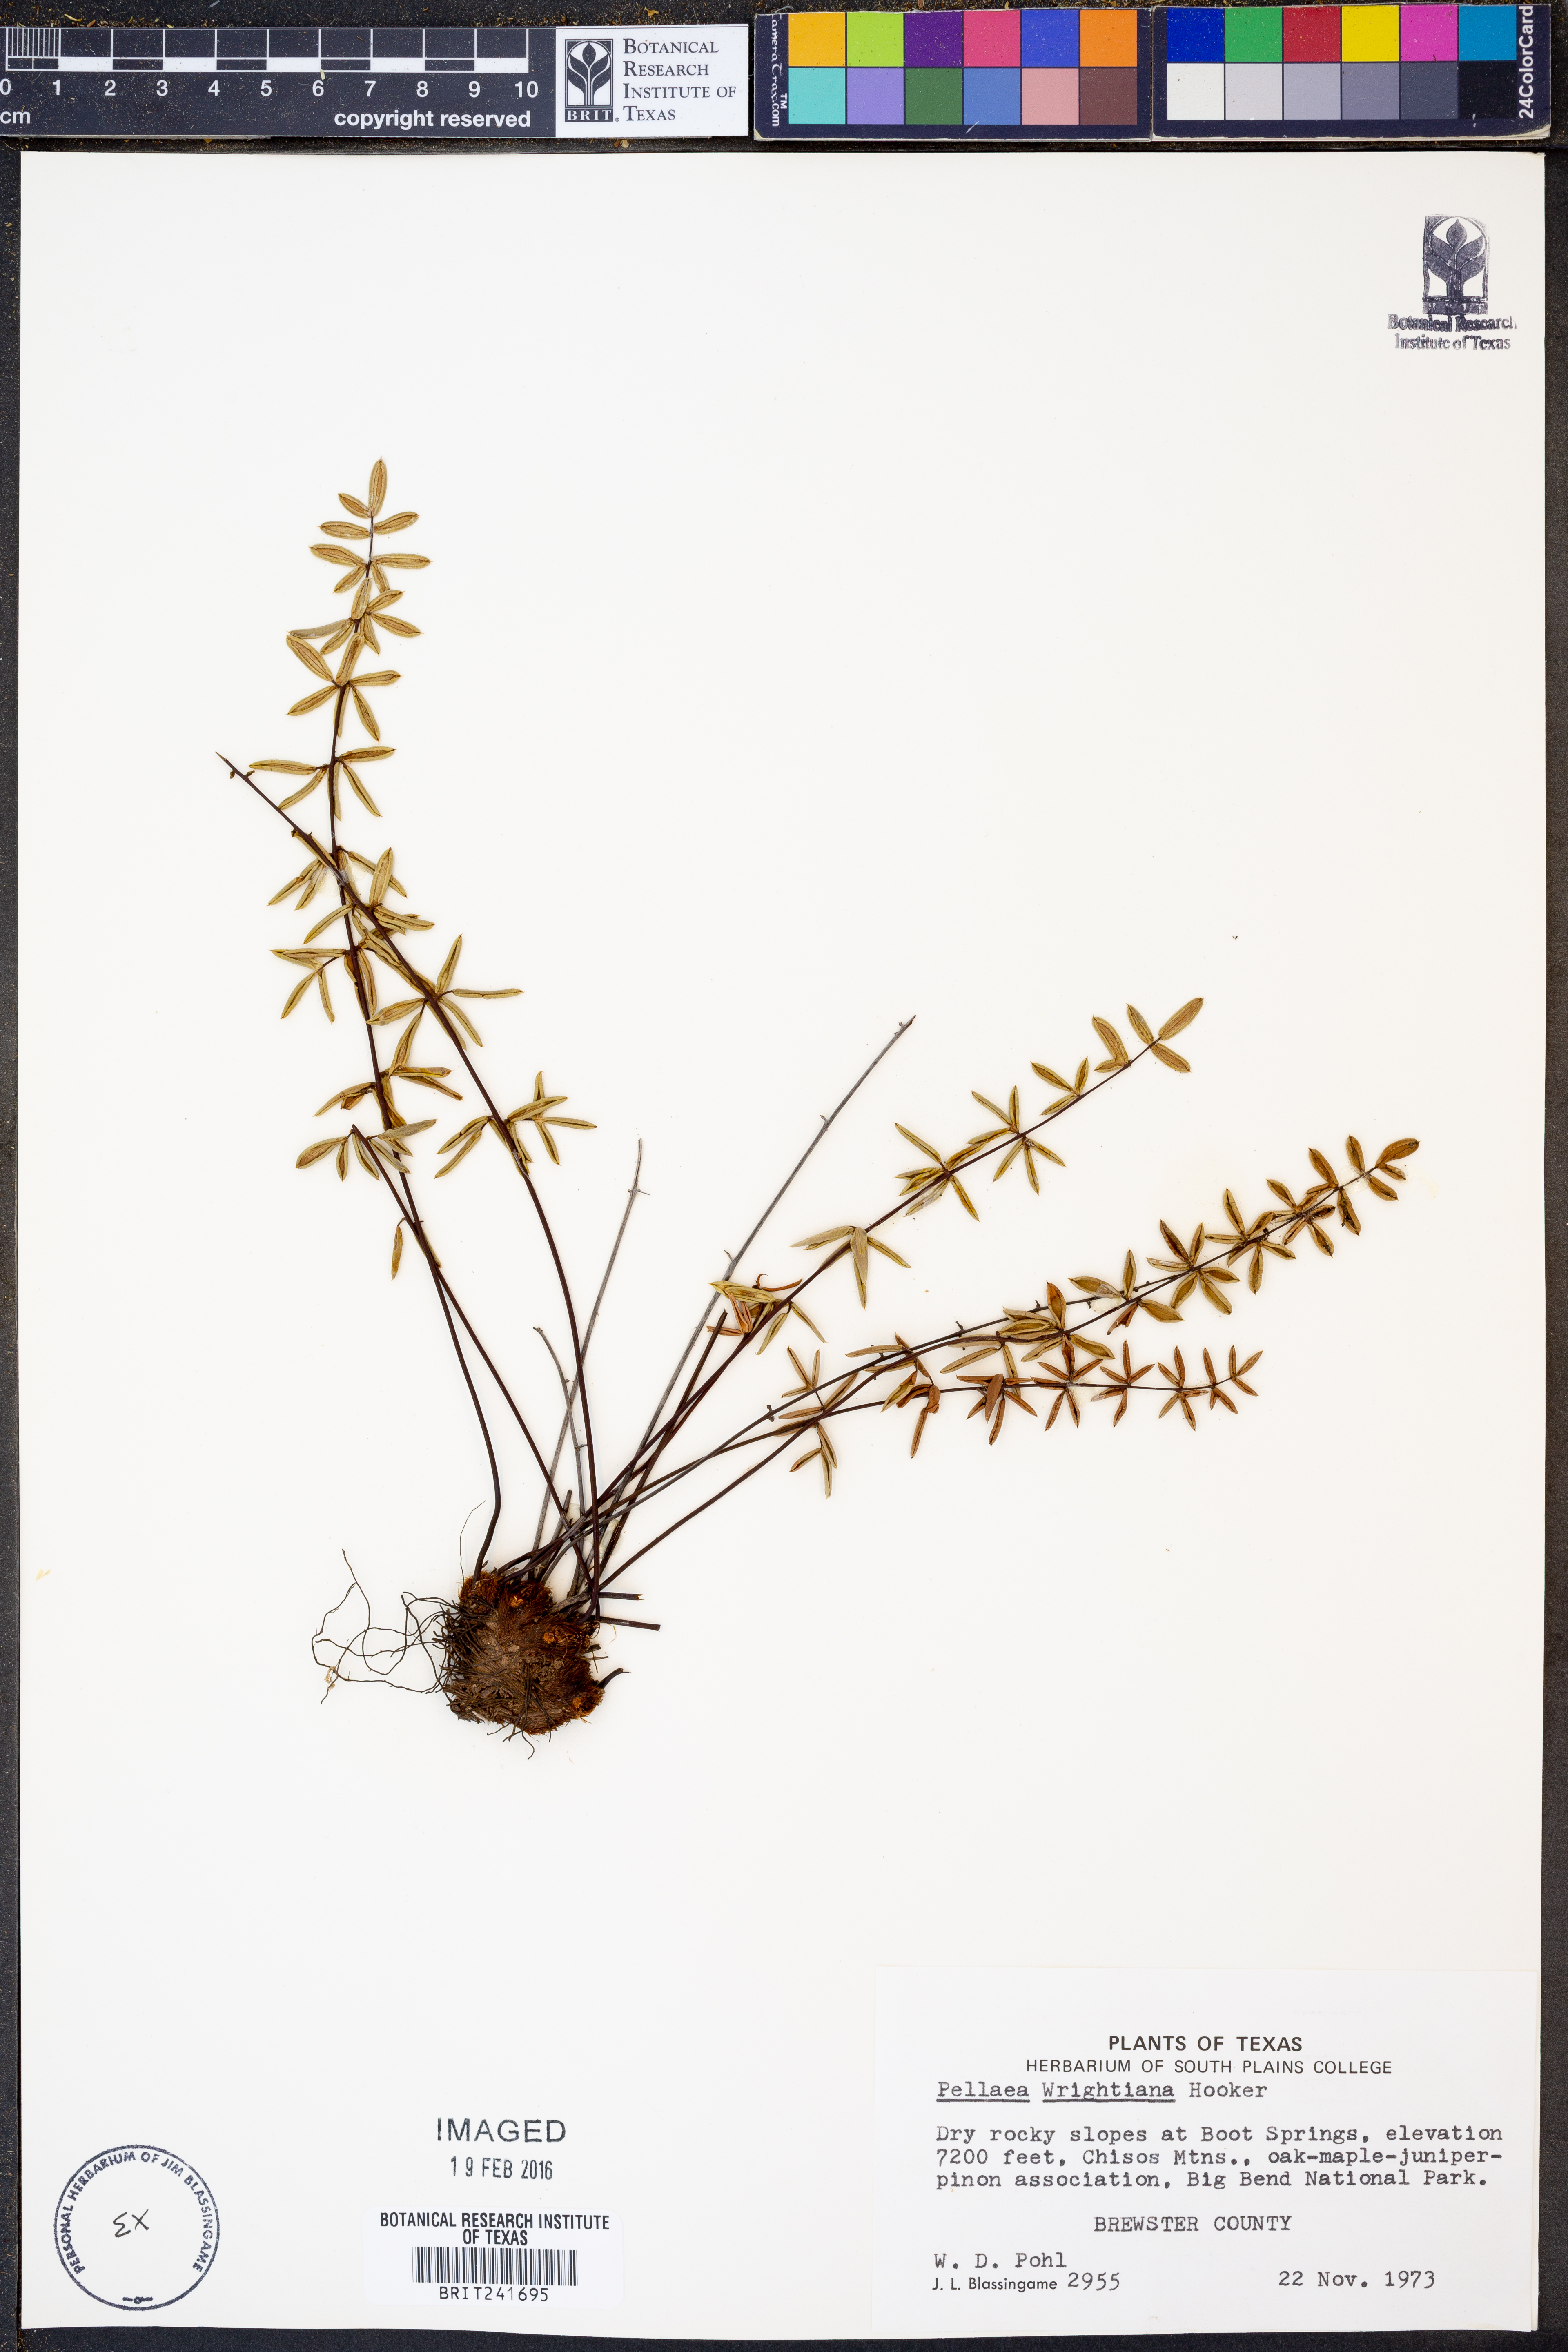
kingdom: Plantae
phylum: Tracheophyta
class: Polypodiopsida
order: Polypodiales
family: Pteridaceae
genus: Pellaea
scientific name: Pellaea wrightiana
